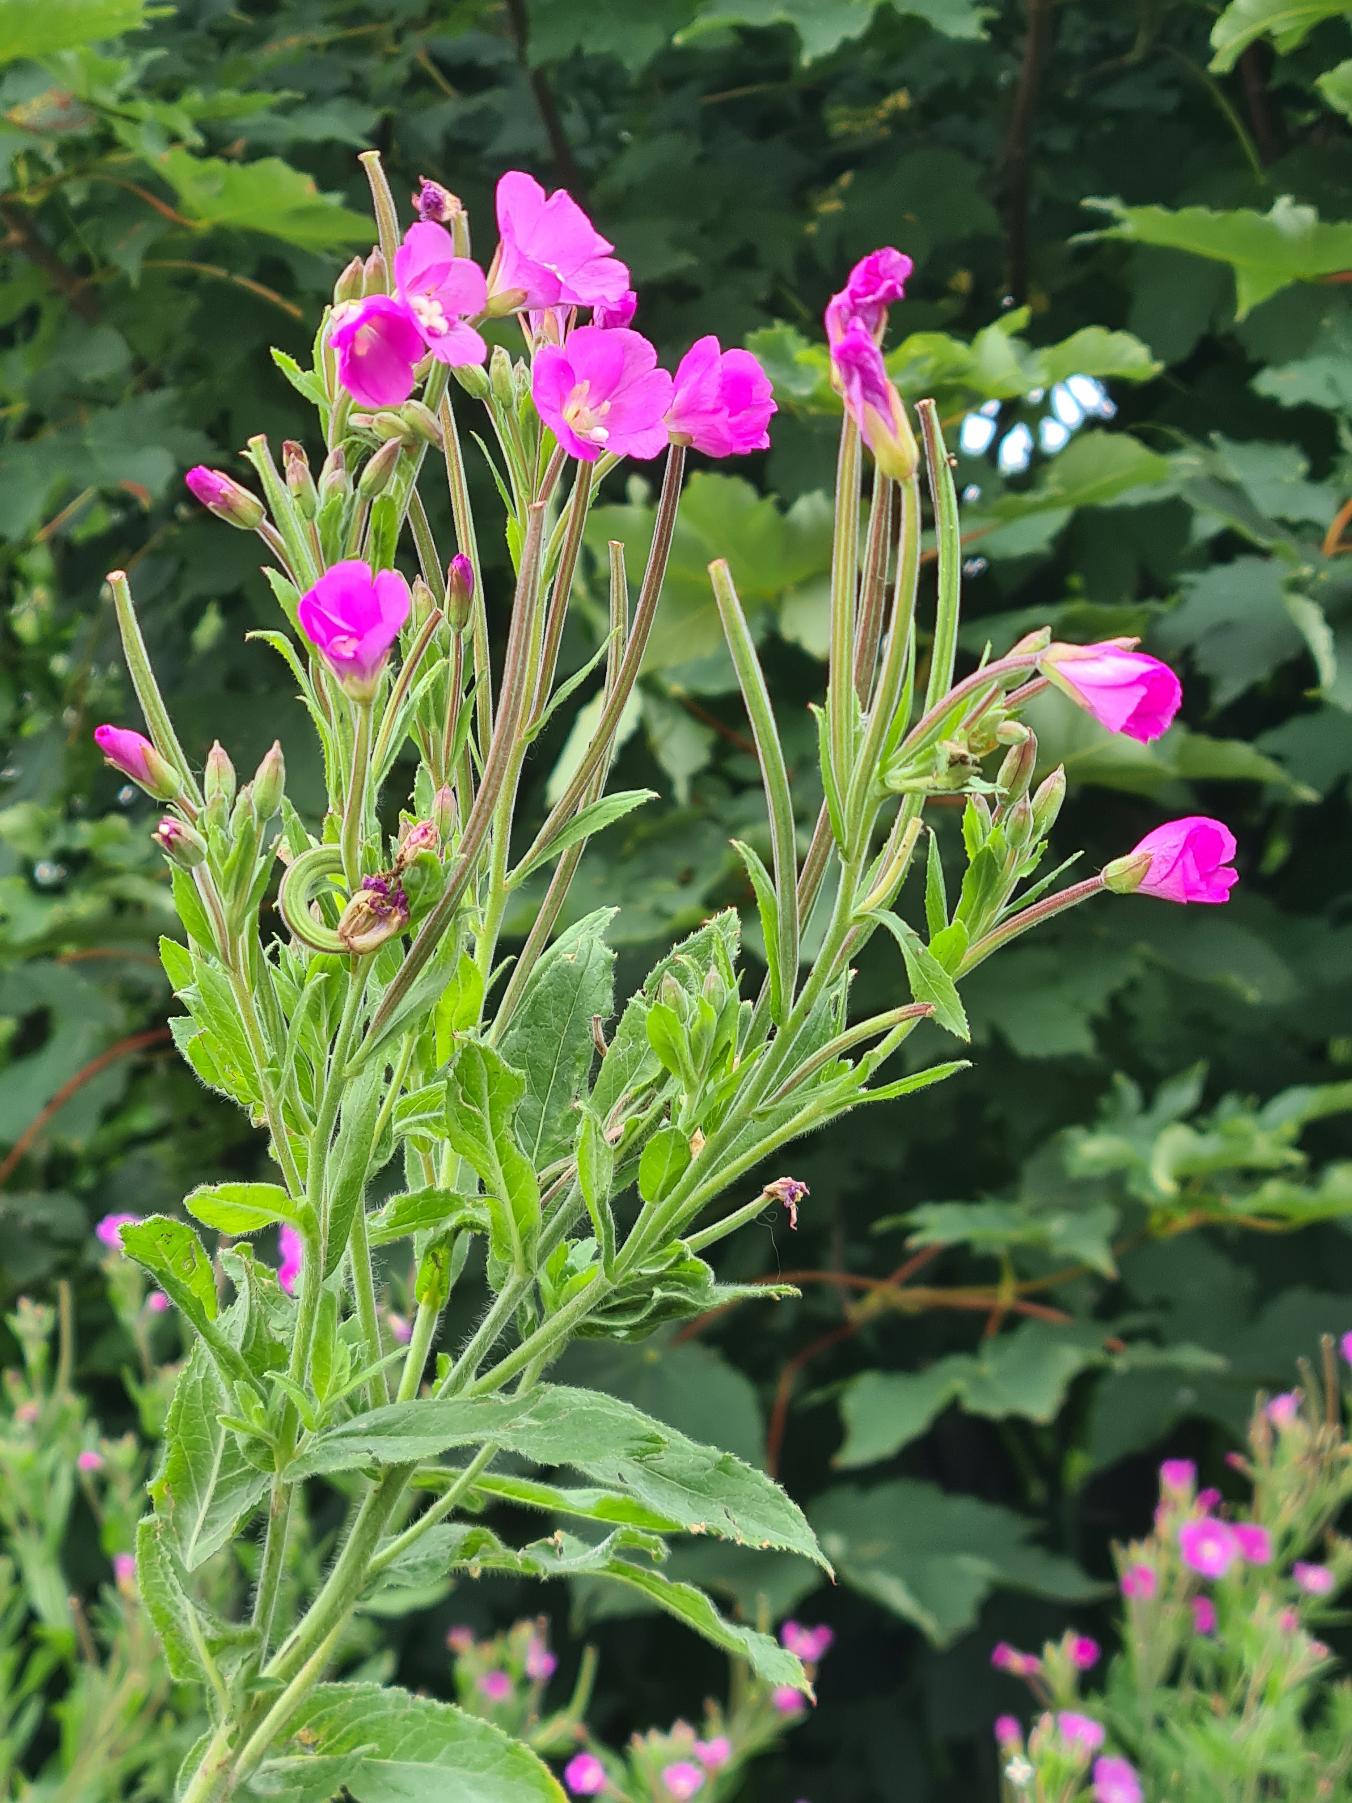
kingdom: Plantae
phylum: Tracheophyta
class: Magnoliopsida
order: Myrtales
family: Onagraceae
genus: Epilobium
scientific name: Epilobium hirsutum
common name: Lådden dueurt
